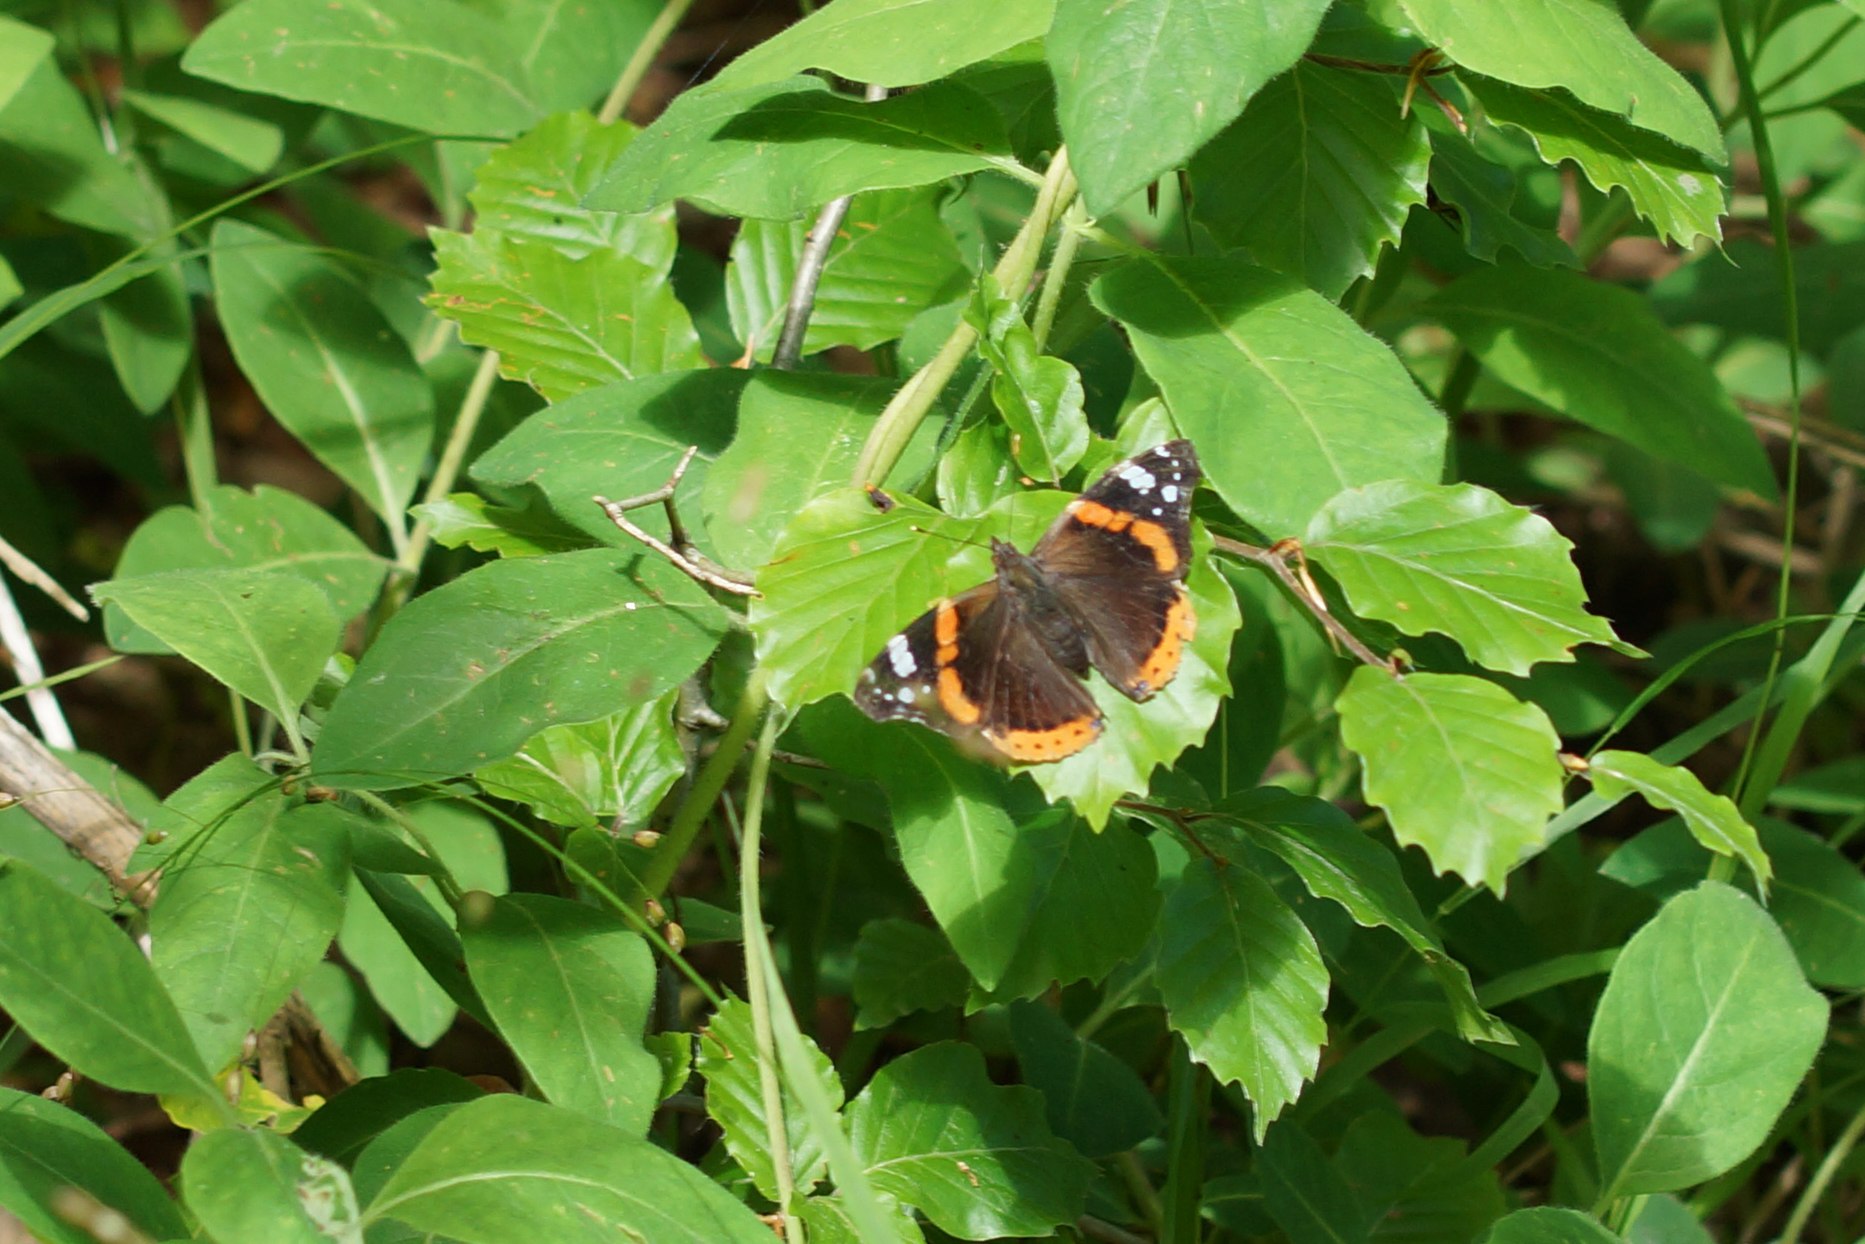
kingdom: Animalia
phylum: Arthropoda
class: Insecta
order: Lepidoptera
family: Nymphalidae
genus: Vanessa
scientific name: Vanessa atalanta
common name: Admiral
